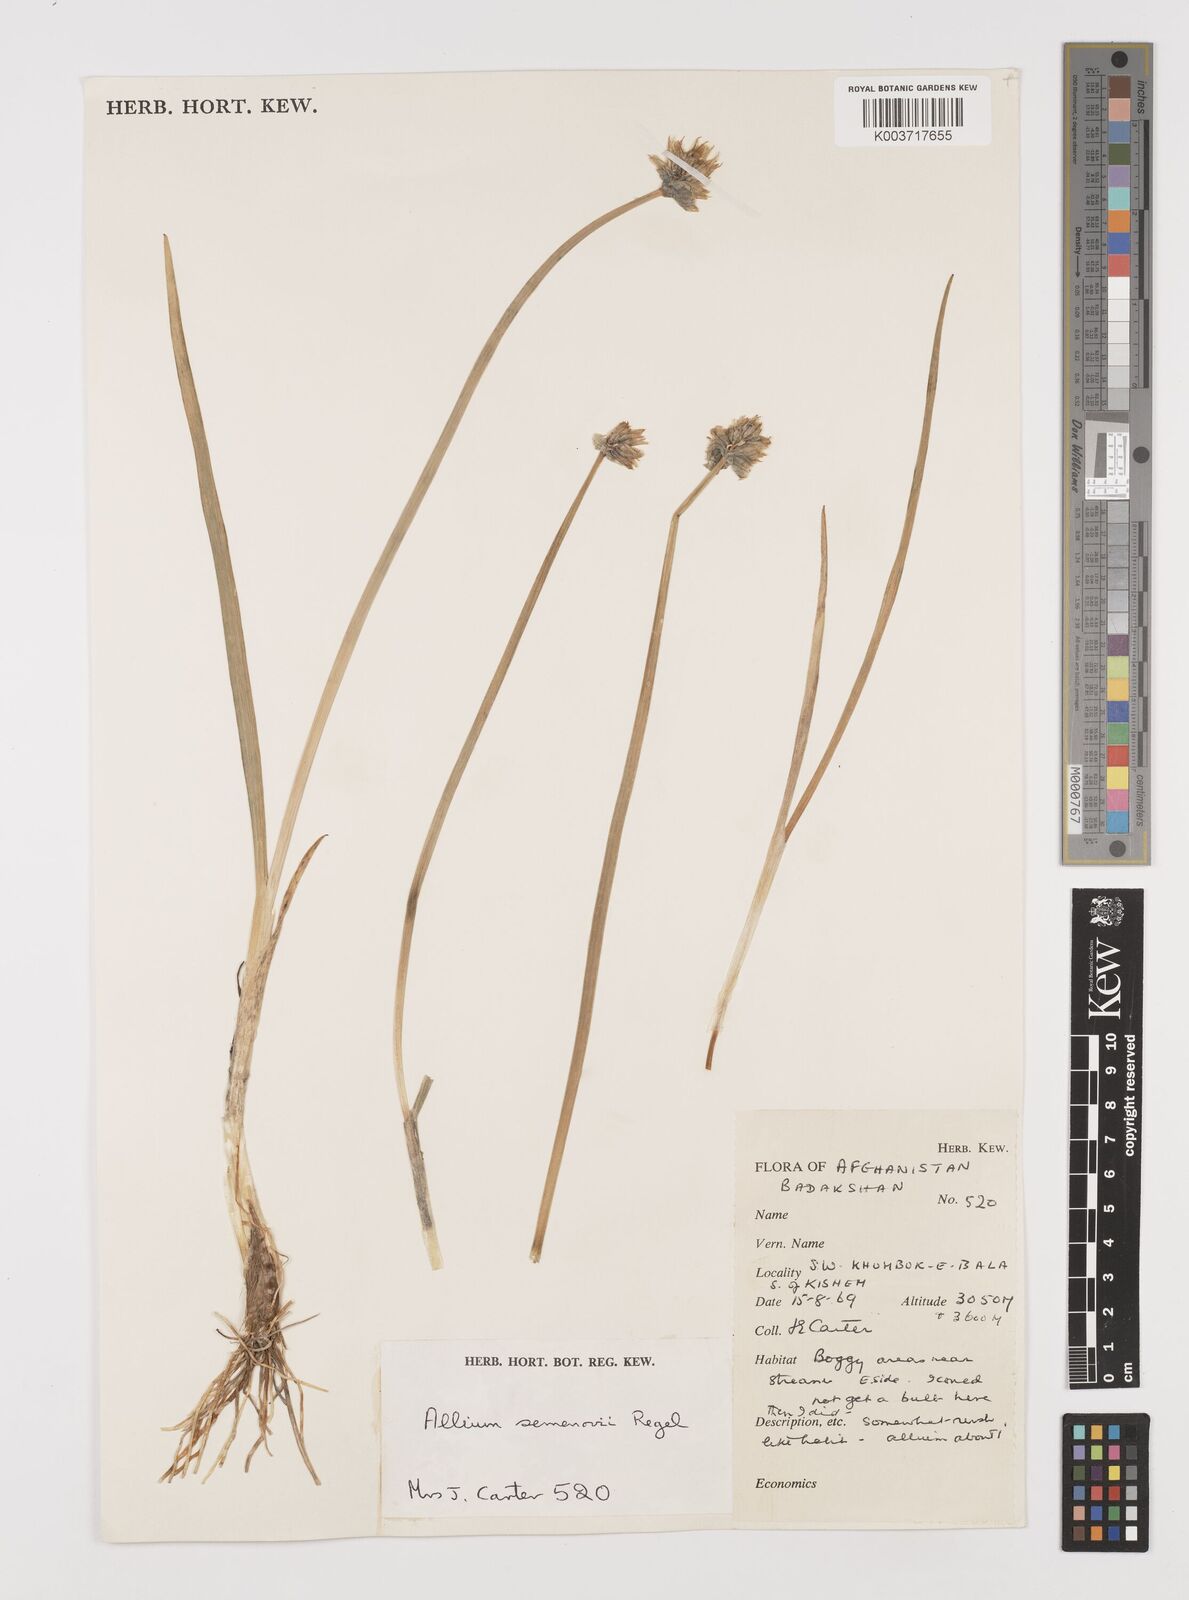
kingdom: Plantae
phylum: Tracheophyta
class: Liliopsida
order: Asparagales
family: Amaryllidaceae
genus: Allium
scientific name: Allium atrosanguineum
